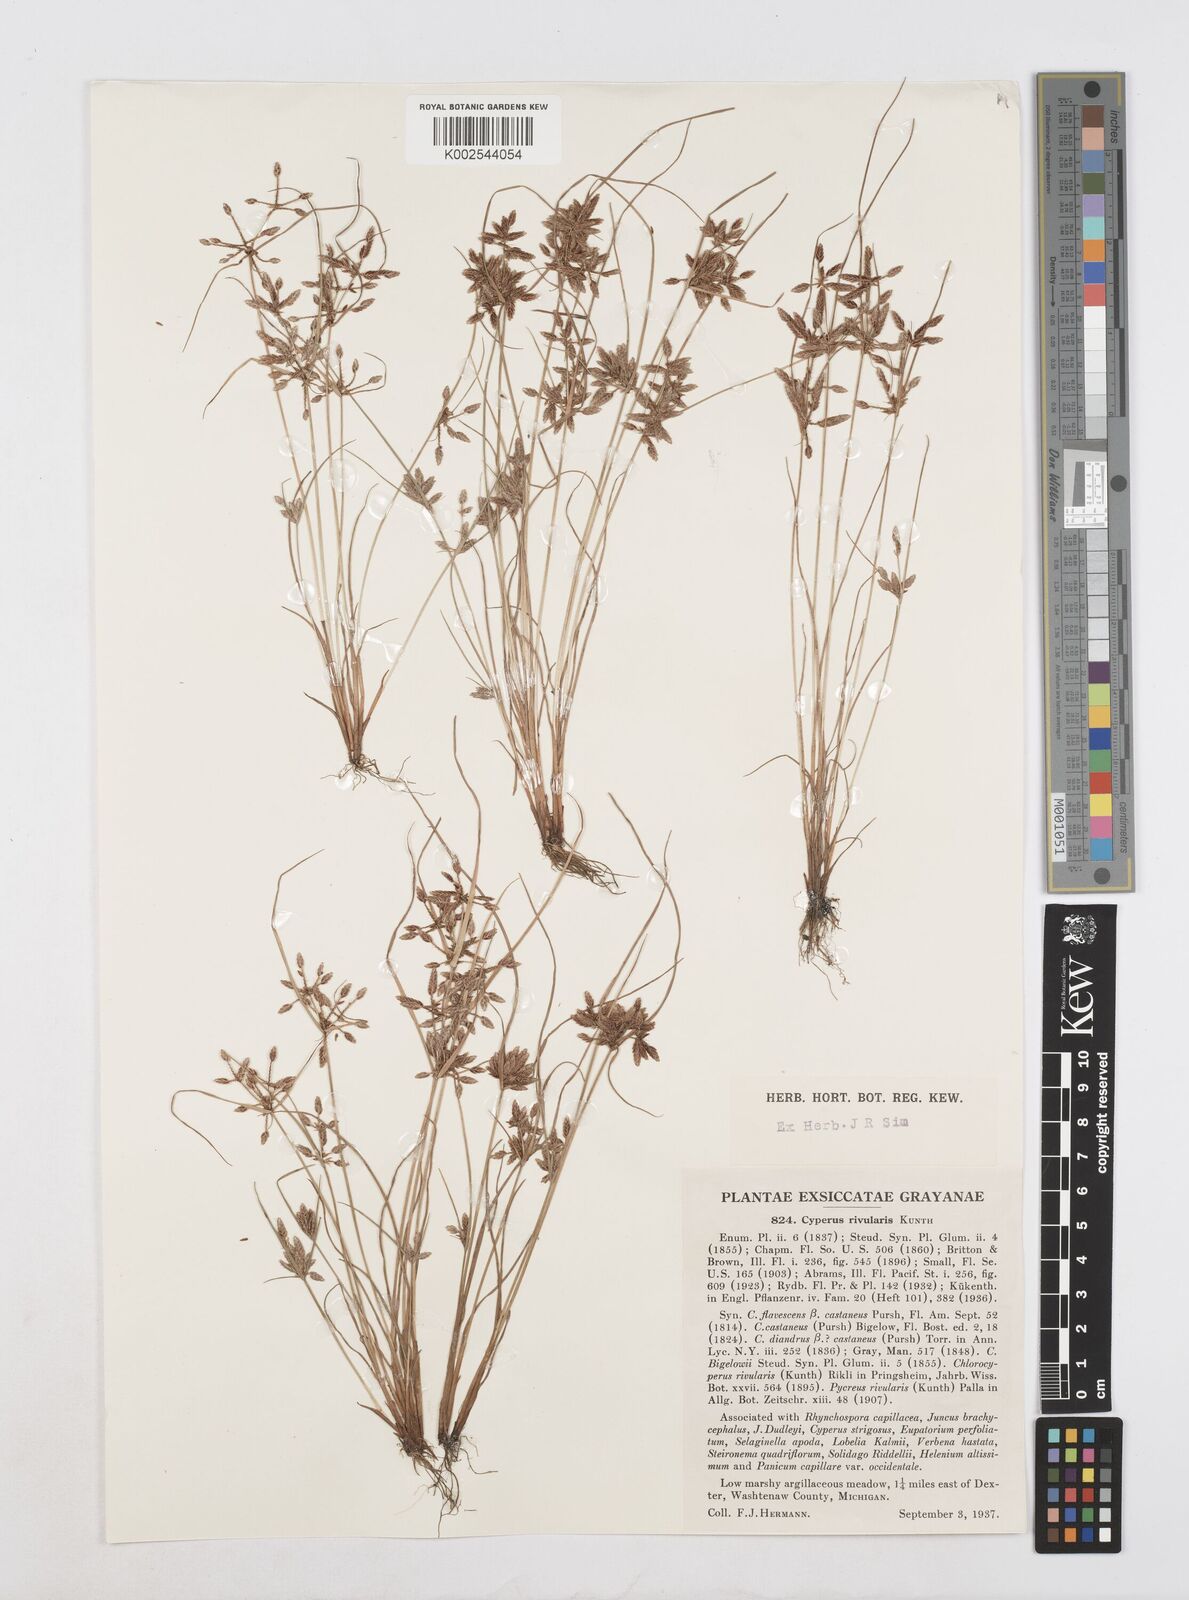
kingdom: Plantae
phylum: Tracheophyta
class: Liliopsida
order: Poales
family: Cyperaceae
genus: Cyperus
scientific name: Cyperus bipartitus
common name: Brook flatsedge
